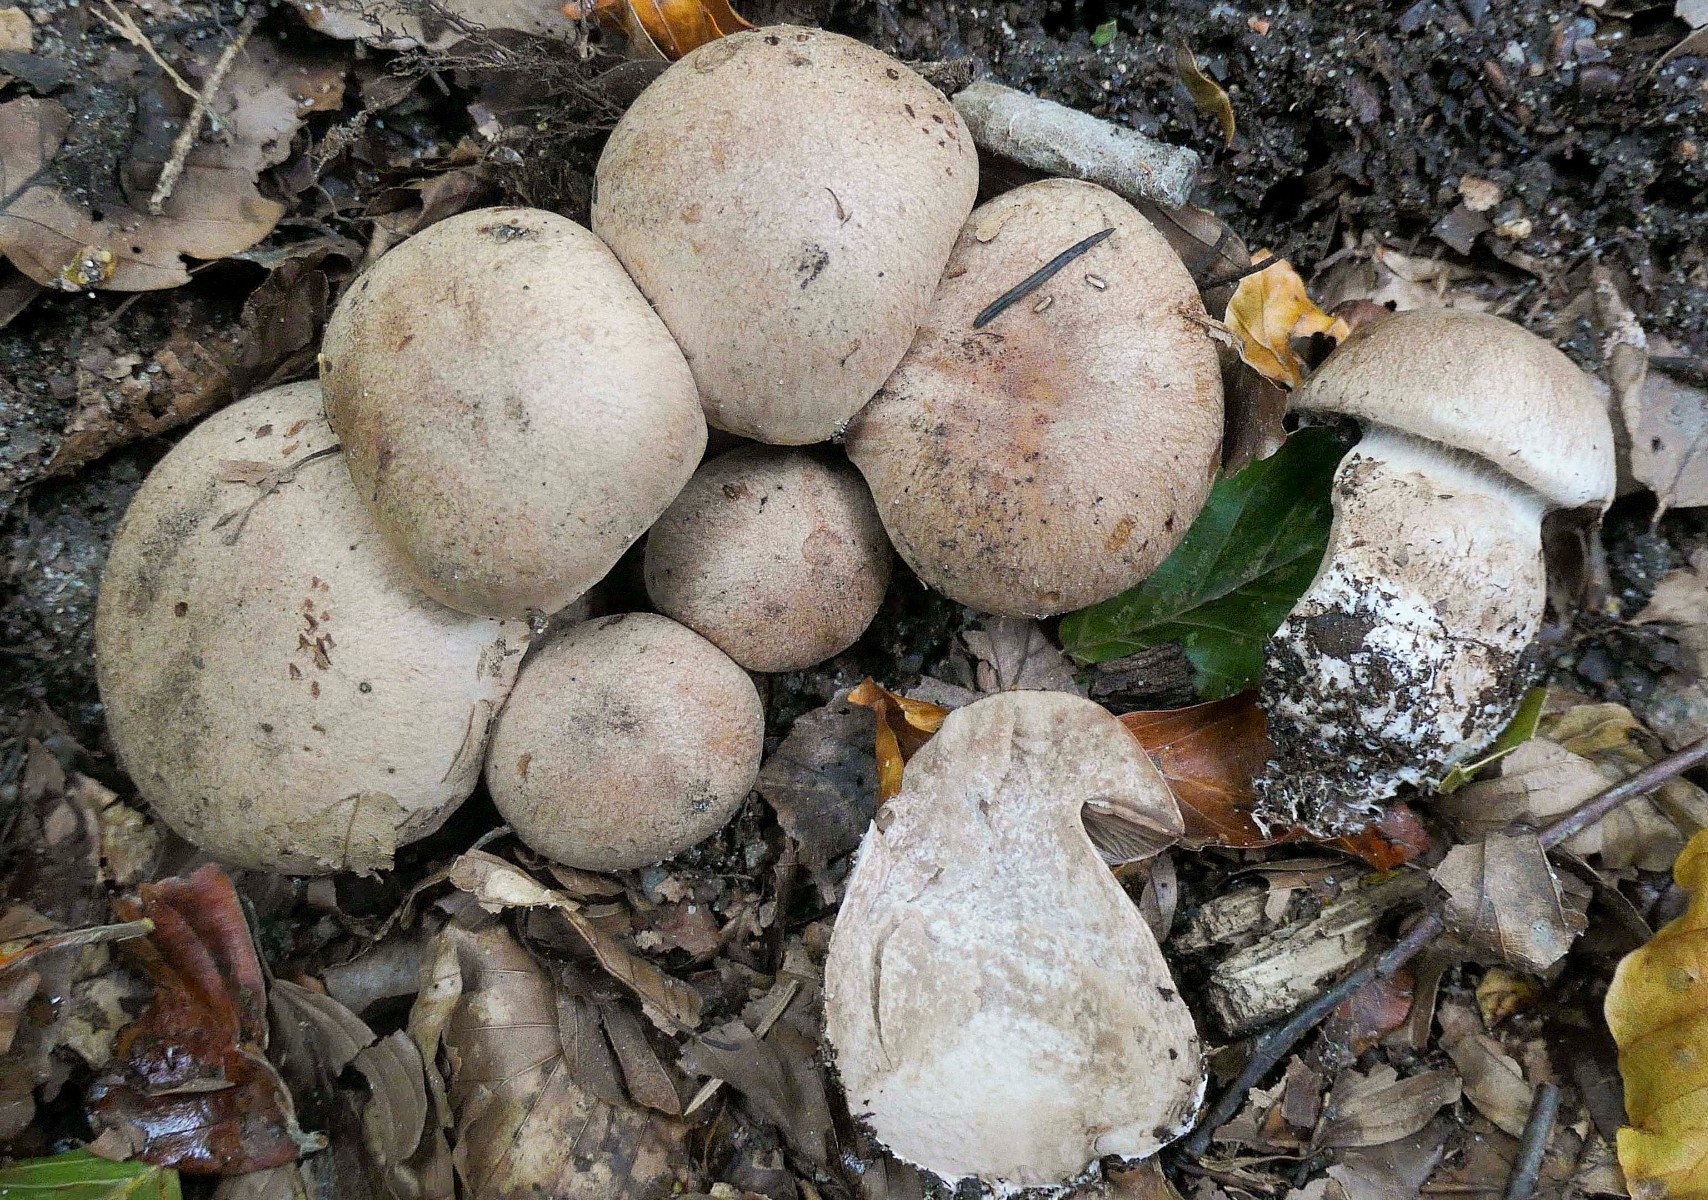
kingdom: Fungi
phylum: Basidiomycota
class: Agaricomycetes
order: Agaricales
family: Cortinariaceae
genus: Cortinarius
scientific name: Cortinarius
